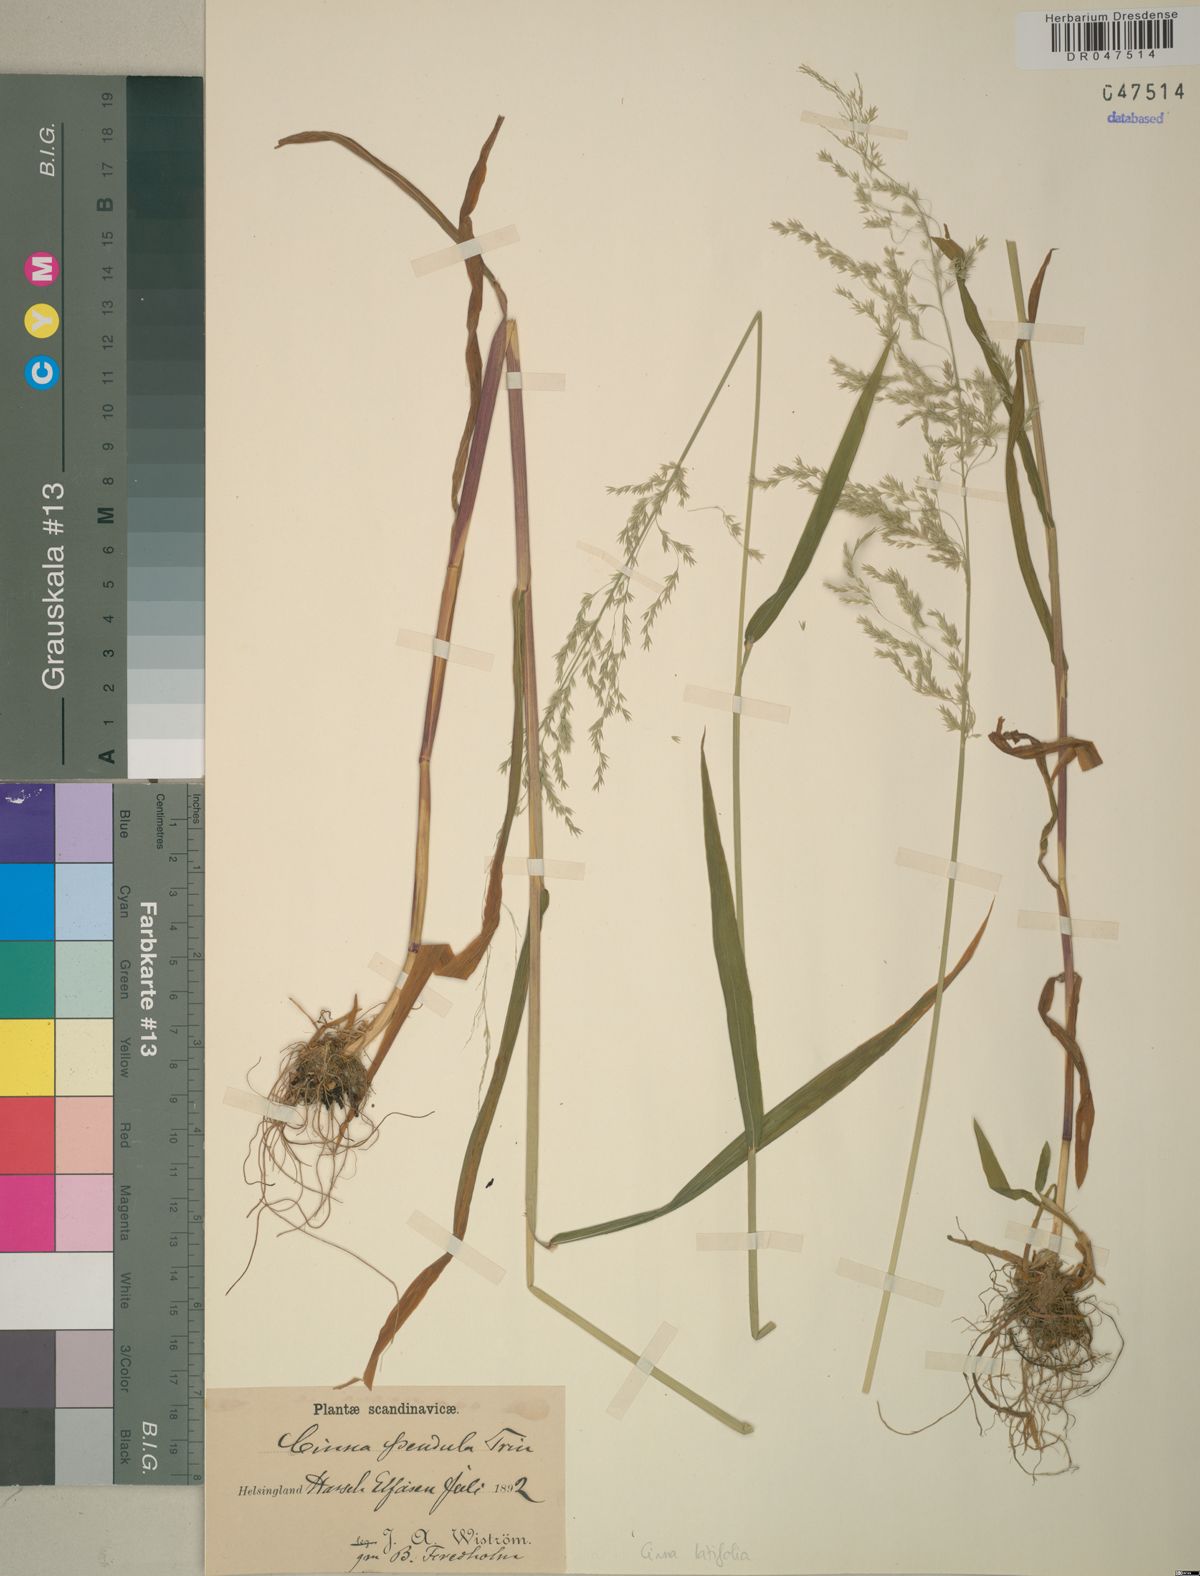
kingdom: Plantae
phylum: Tracheophyta
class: Liliopsida
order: Poales
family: Poaceae
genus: Cinna
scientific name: Cinna latifolia
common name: Drooping woodreed
